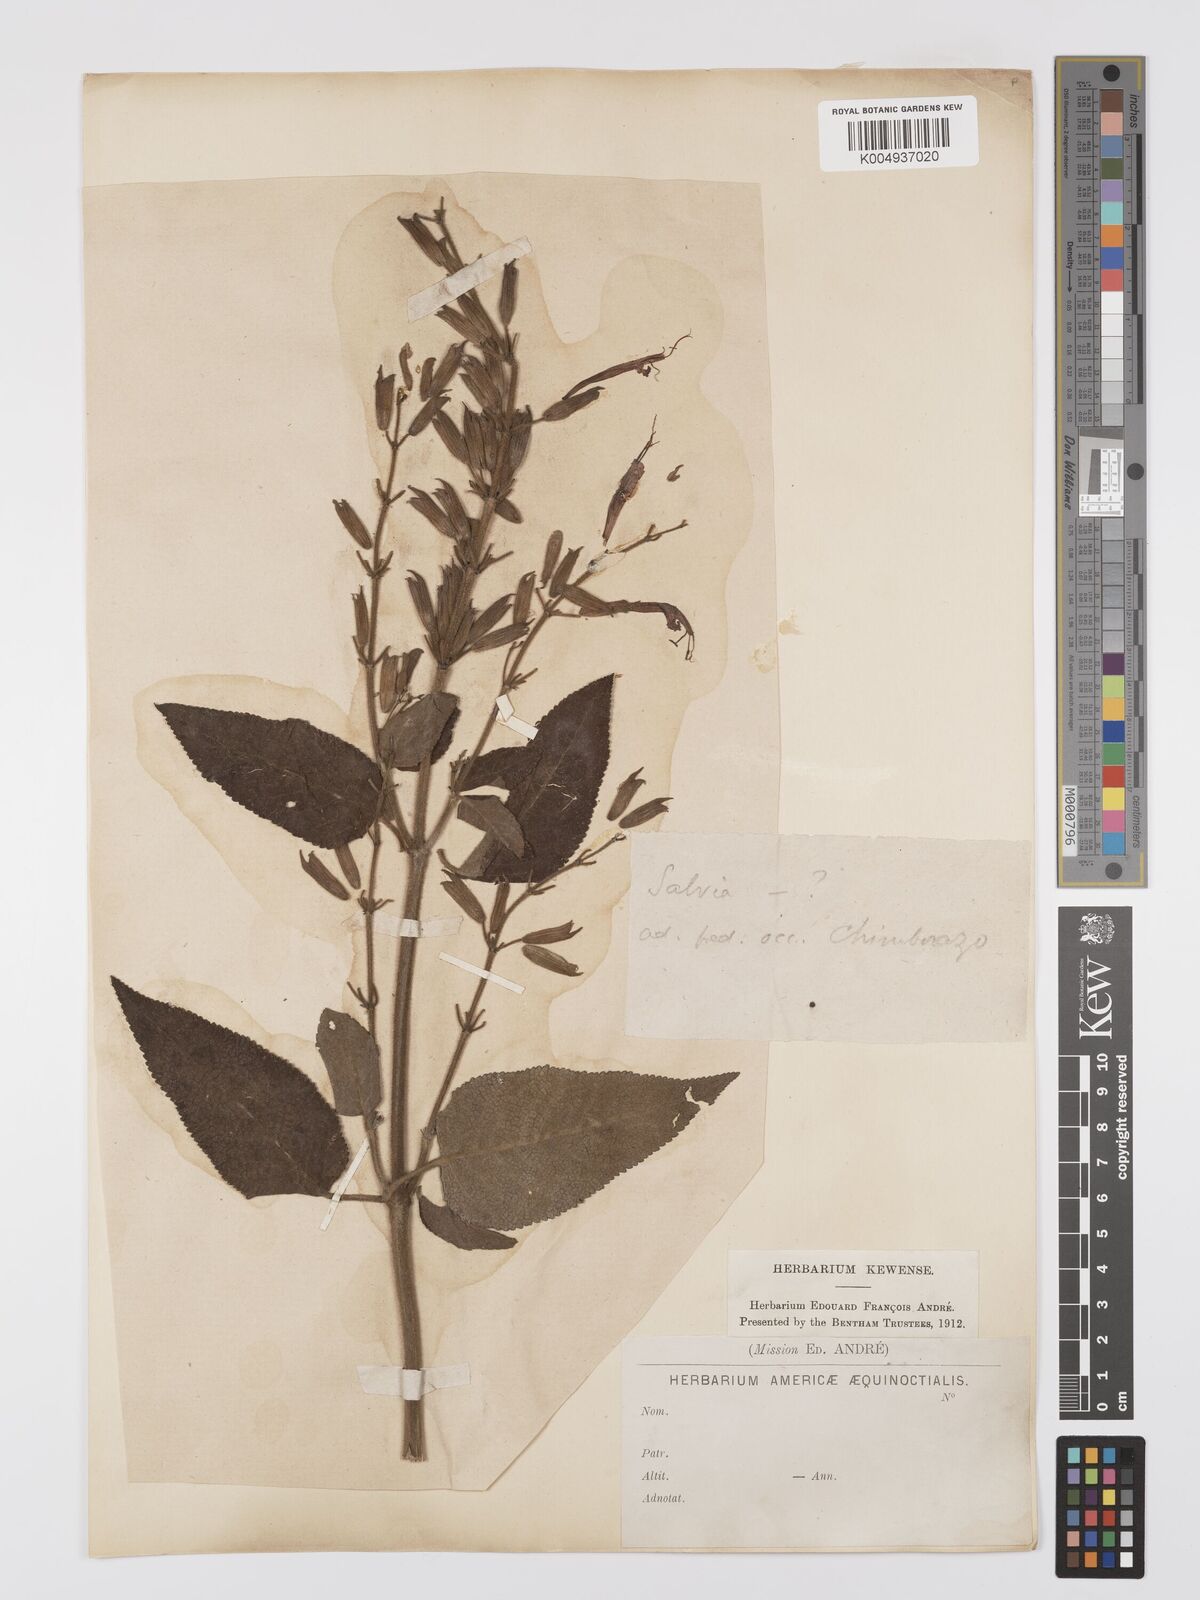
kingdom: Plantae
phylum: Tracheophyta
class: Magnoliopsida
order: Lamiales
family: Lamiaceae
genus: Salvia
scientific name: Salvia sprucei
